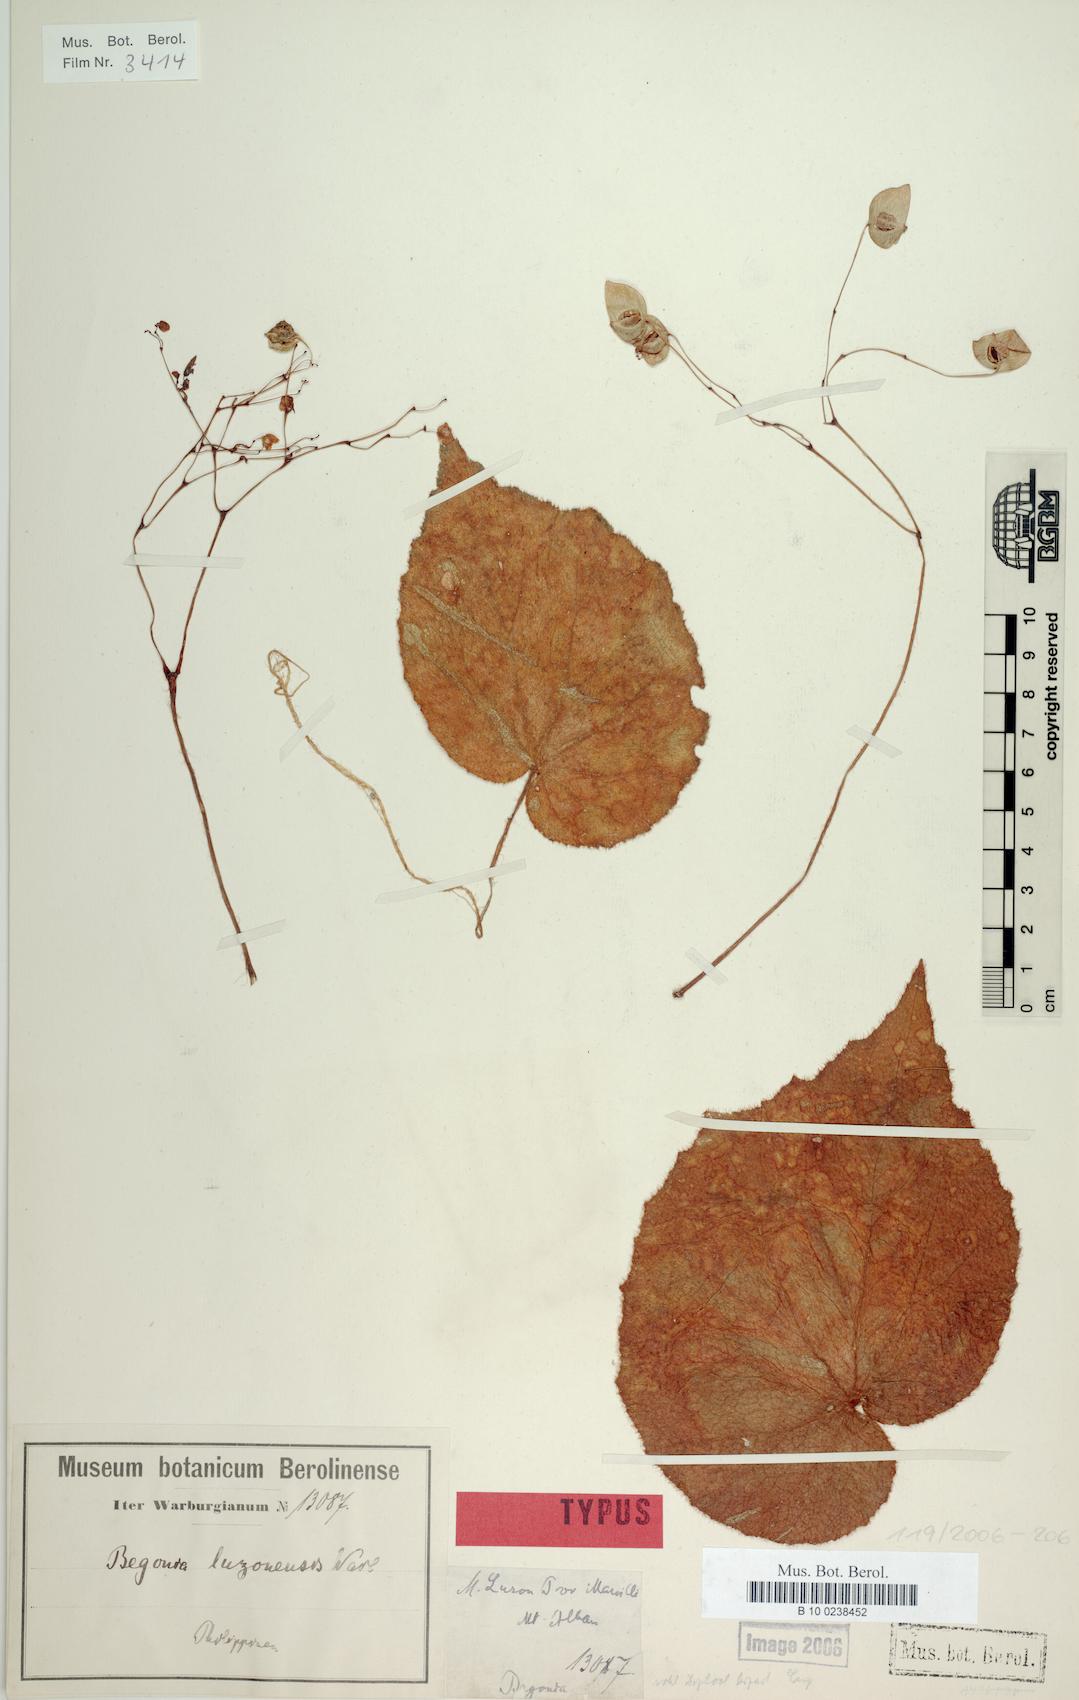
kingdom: Plantae
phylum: Tracheophyta
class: Magnoliopsida
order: Cucurbitales
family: Begoniaceae
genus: Begonia
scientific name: Begonia luzonensis
